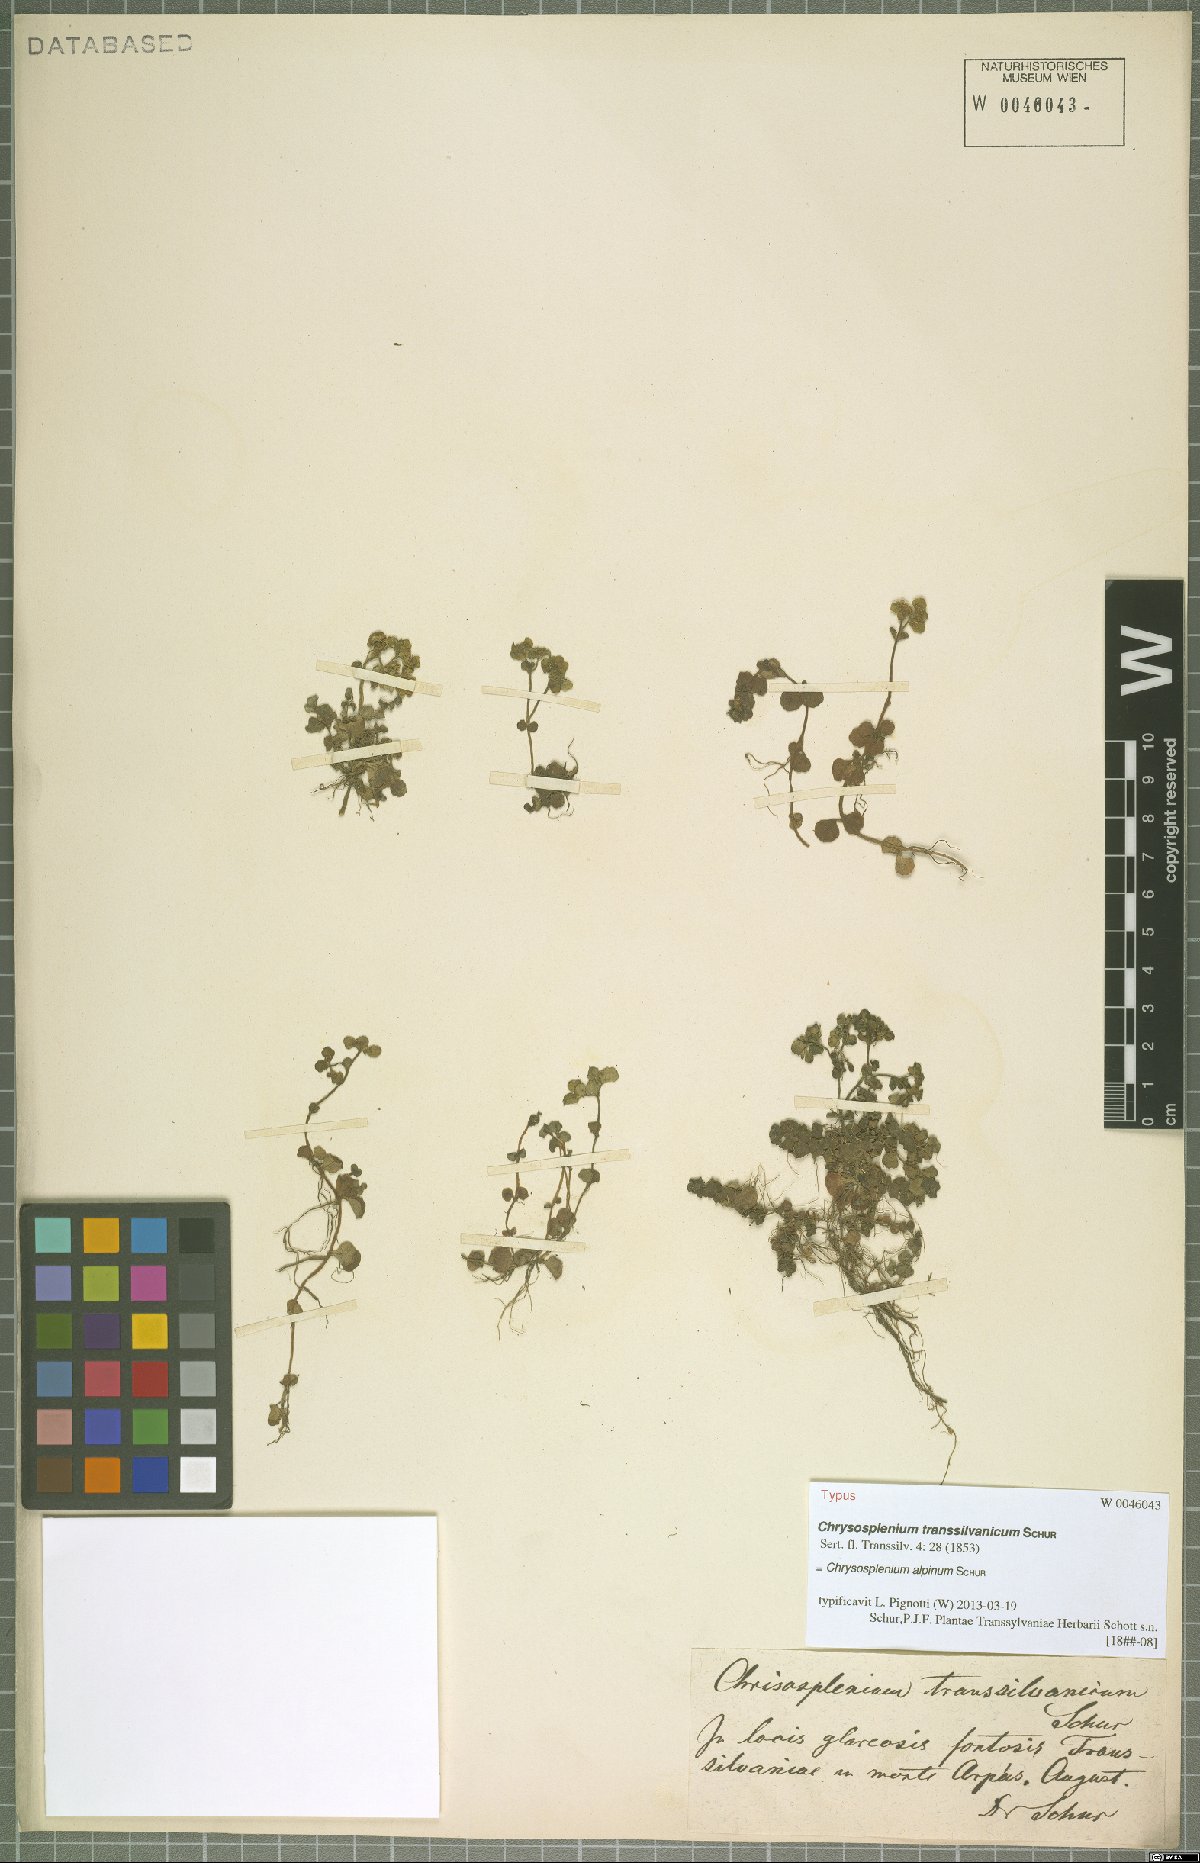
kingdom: Plantae
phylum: Tracheophyta
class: Magnoliopsida
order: Saxifragales
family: Saxifragaceae
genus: Chrysosplenium
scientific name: Chrysosplenium alpinum
